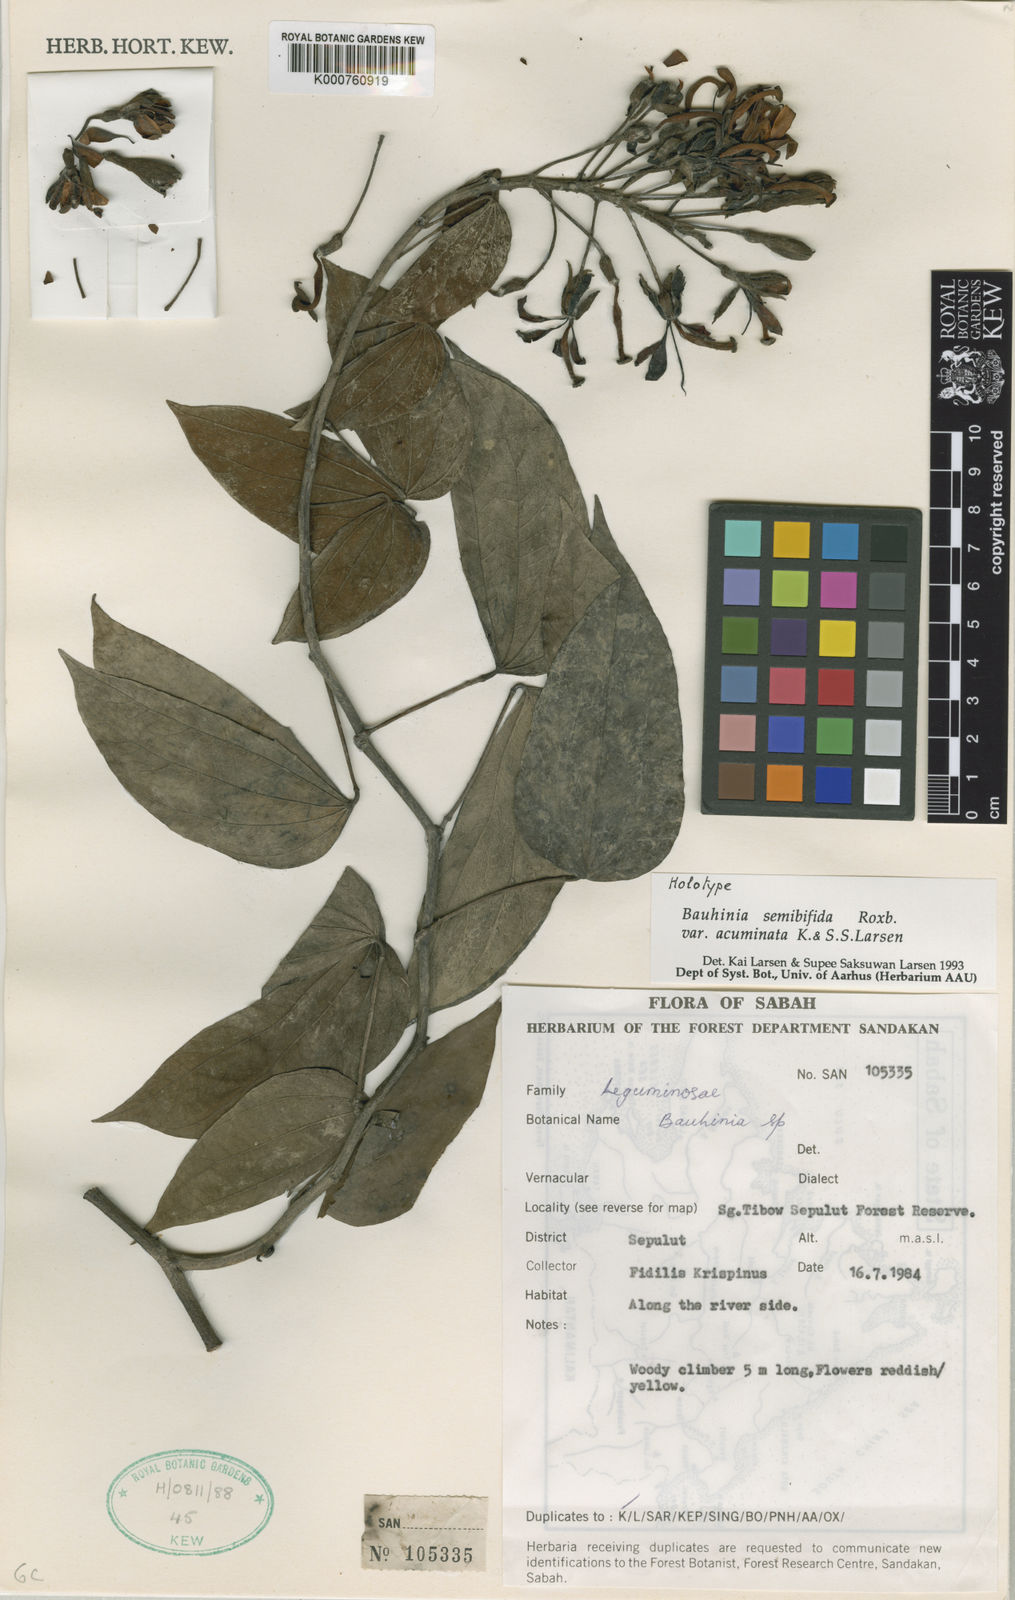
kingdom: Plantae
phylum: Tracheophyta
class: Magnoliopsida
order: Fabales
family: Fabaceae
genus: Phanera
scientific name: Phanera semibifida
